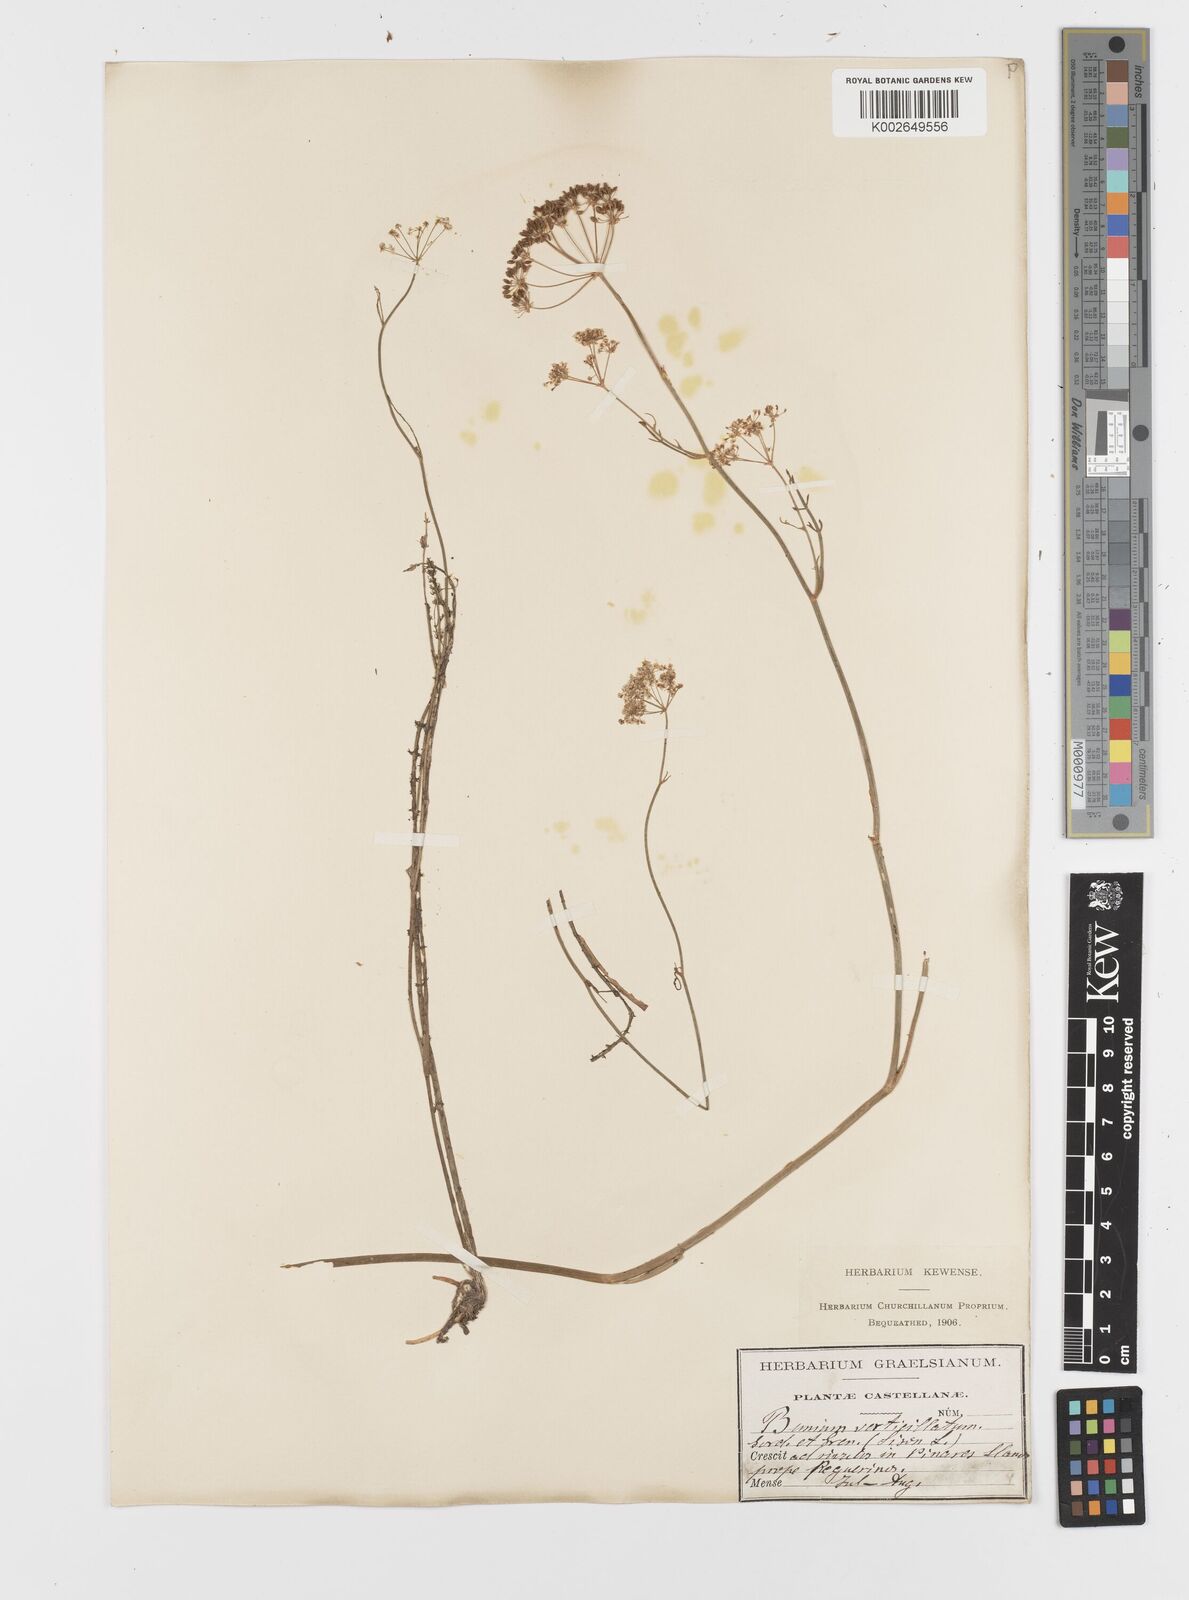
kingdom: Plantae
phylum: Tracheophyta
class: Magnoliopsida
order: Apiales
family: Apiaceae
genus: Trocdaris
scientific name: Trocdaris verticillatum
